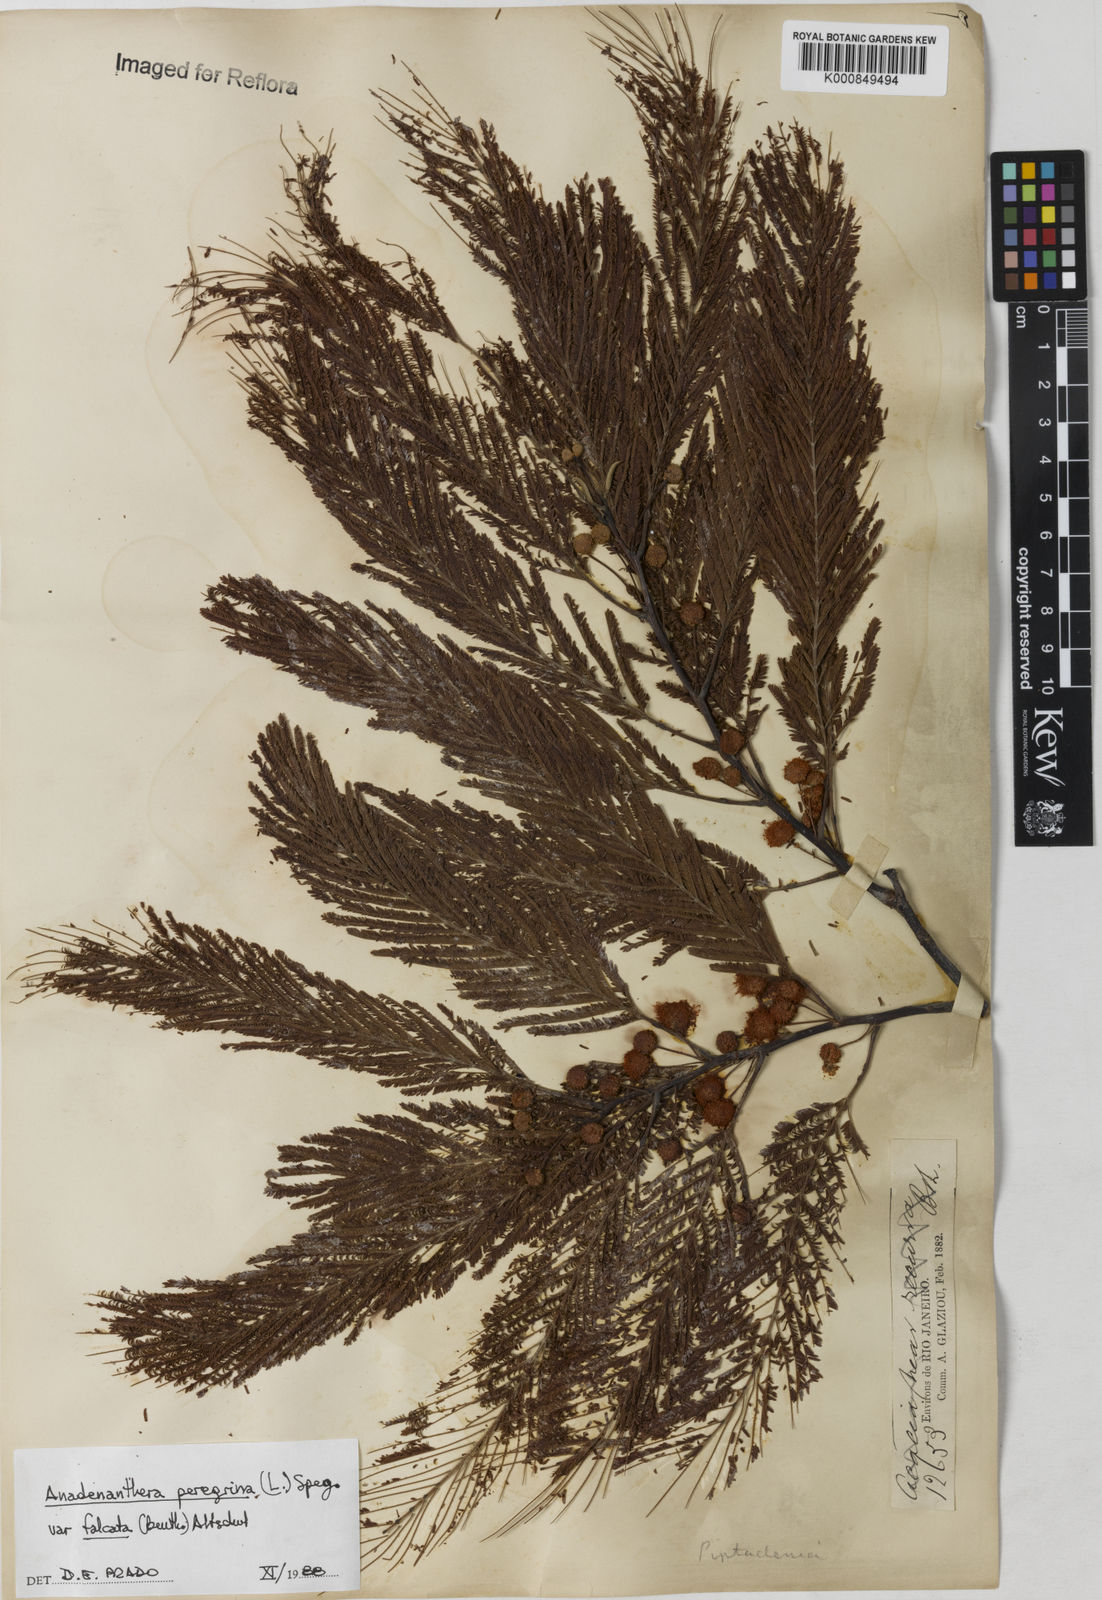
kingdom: Plantae
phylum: Tracheophyta
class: Magnoliopsida
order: Fabales
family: Fabaceae
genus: Anadenanthera
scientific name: Anadenanthera peregrina
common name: Cohoba
